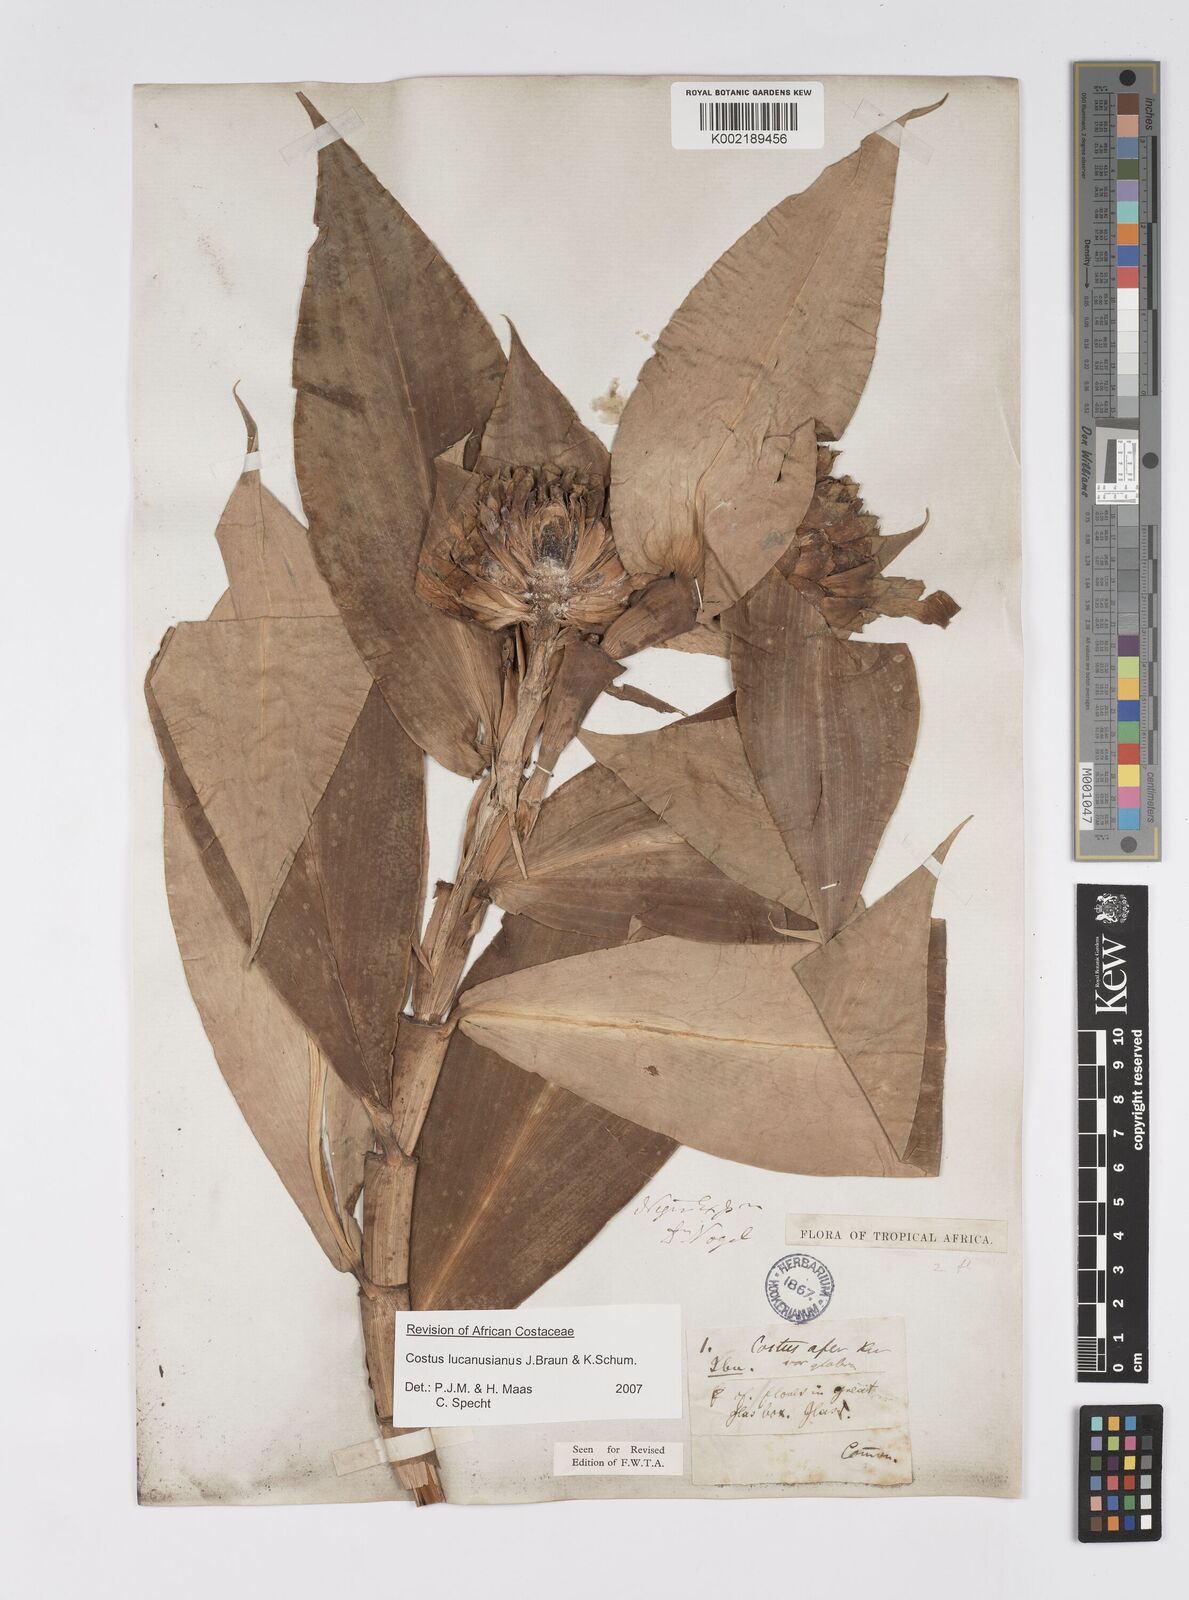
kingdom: Plantae
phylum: Tracheophyta
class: Liliopsida
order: Zingiberales
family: Costaceae
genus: Costus
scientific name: Costus lucanusianus
